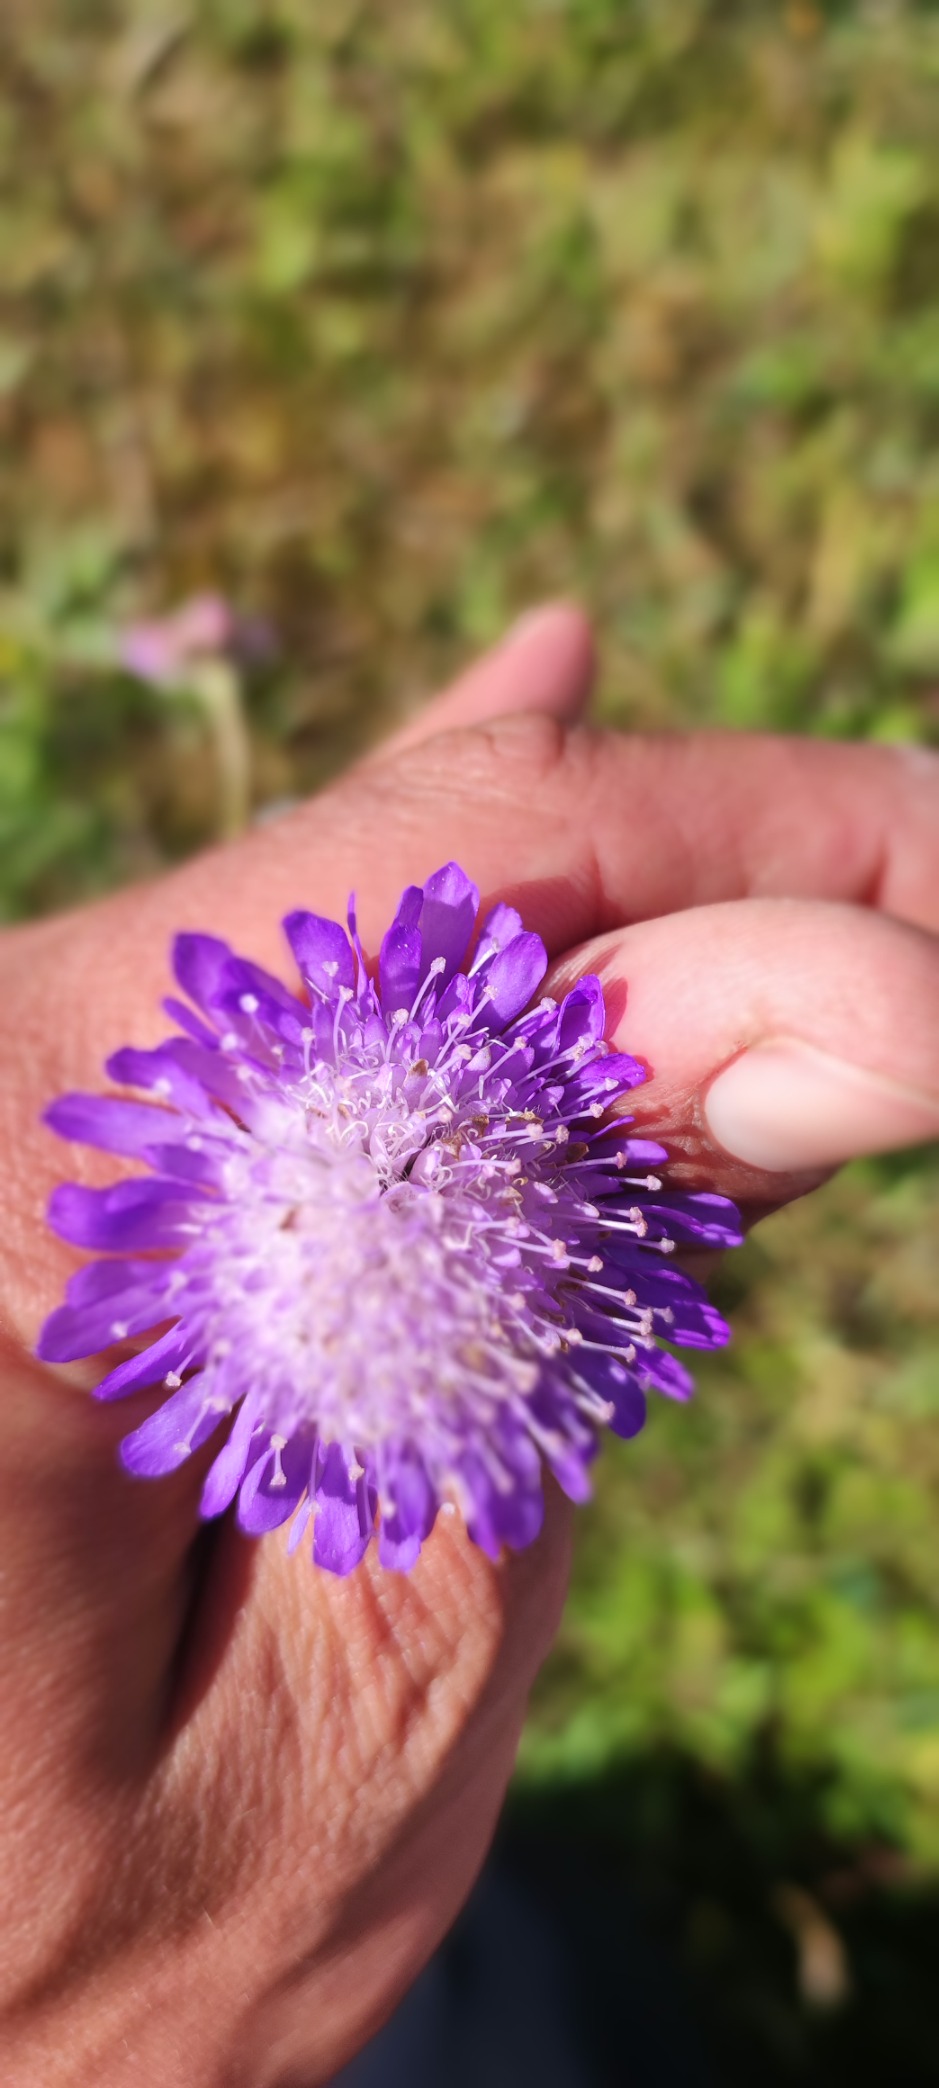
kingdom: Plantae
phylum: Tracheophyta
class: Magnoliopsida
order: Dipsacales
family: Caprifoliaceae
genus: Knautia
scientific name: Knautia arvensis
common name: Blåhat
